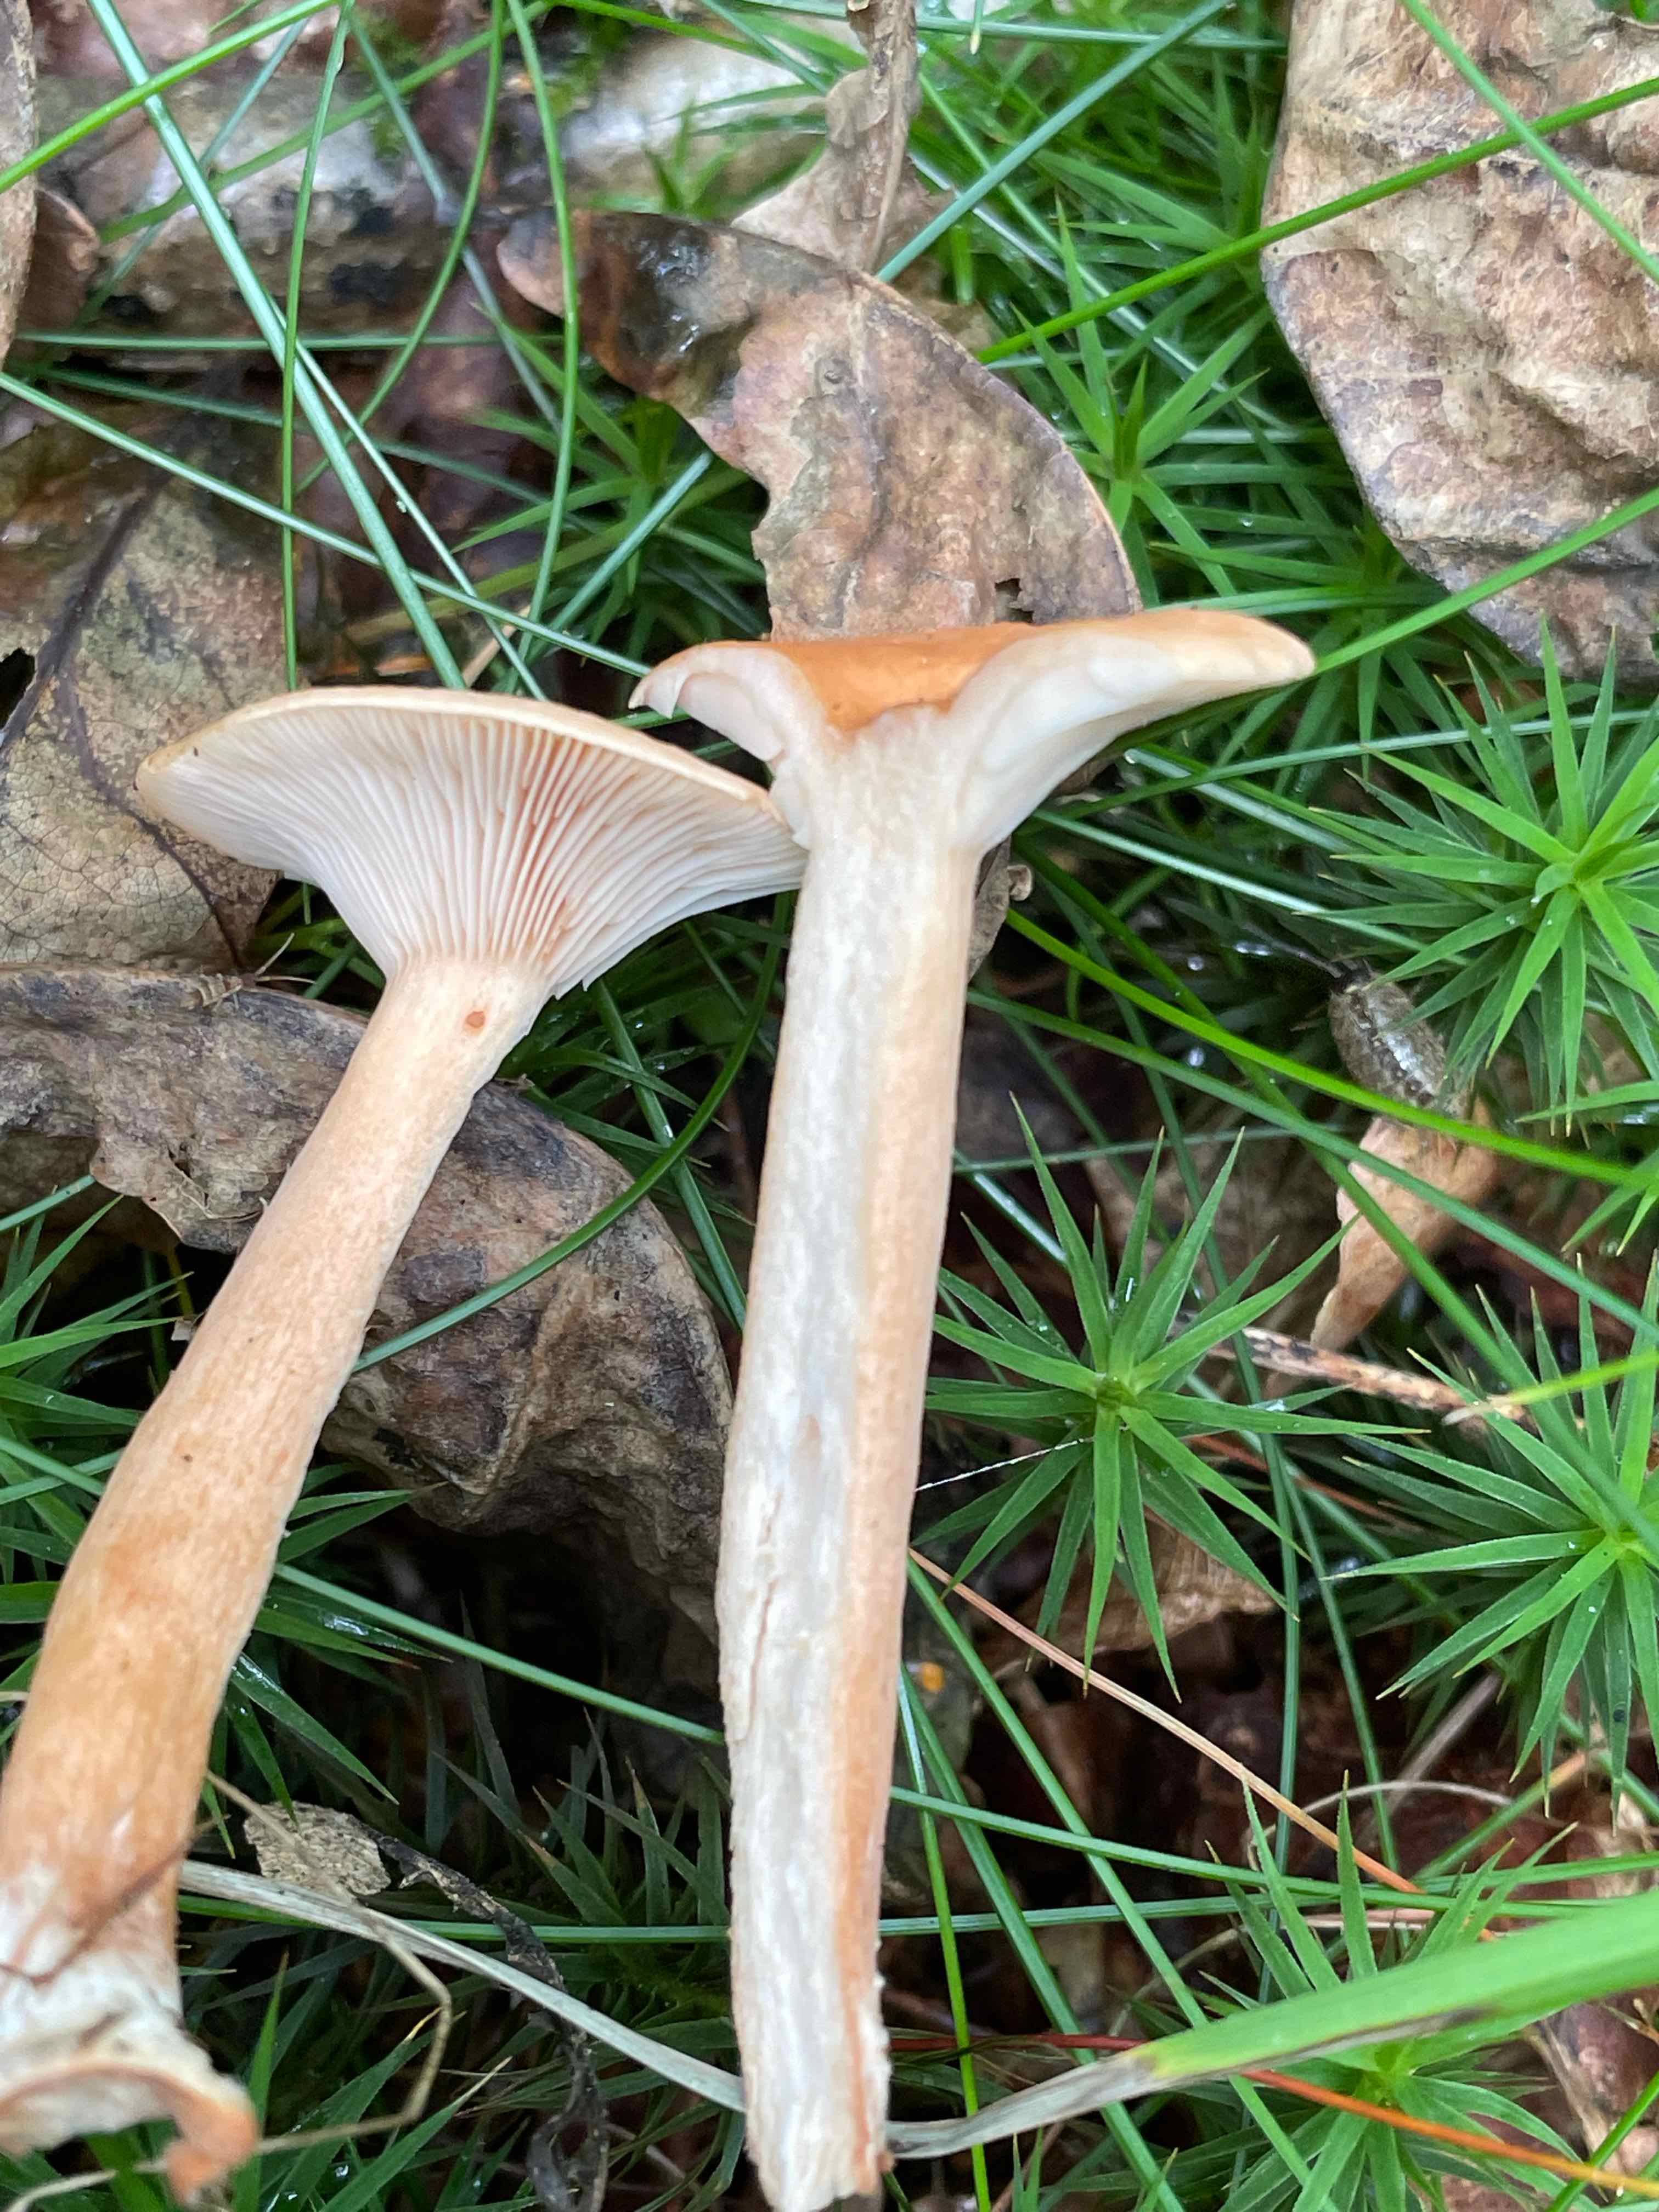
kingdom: Fungi
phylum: Basidiomycota
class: Agaricomycetes
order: Russulales
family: Russulaceae
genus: Lactarius
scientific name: Lactarius tabidus
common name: rynket mælkehat
